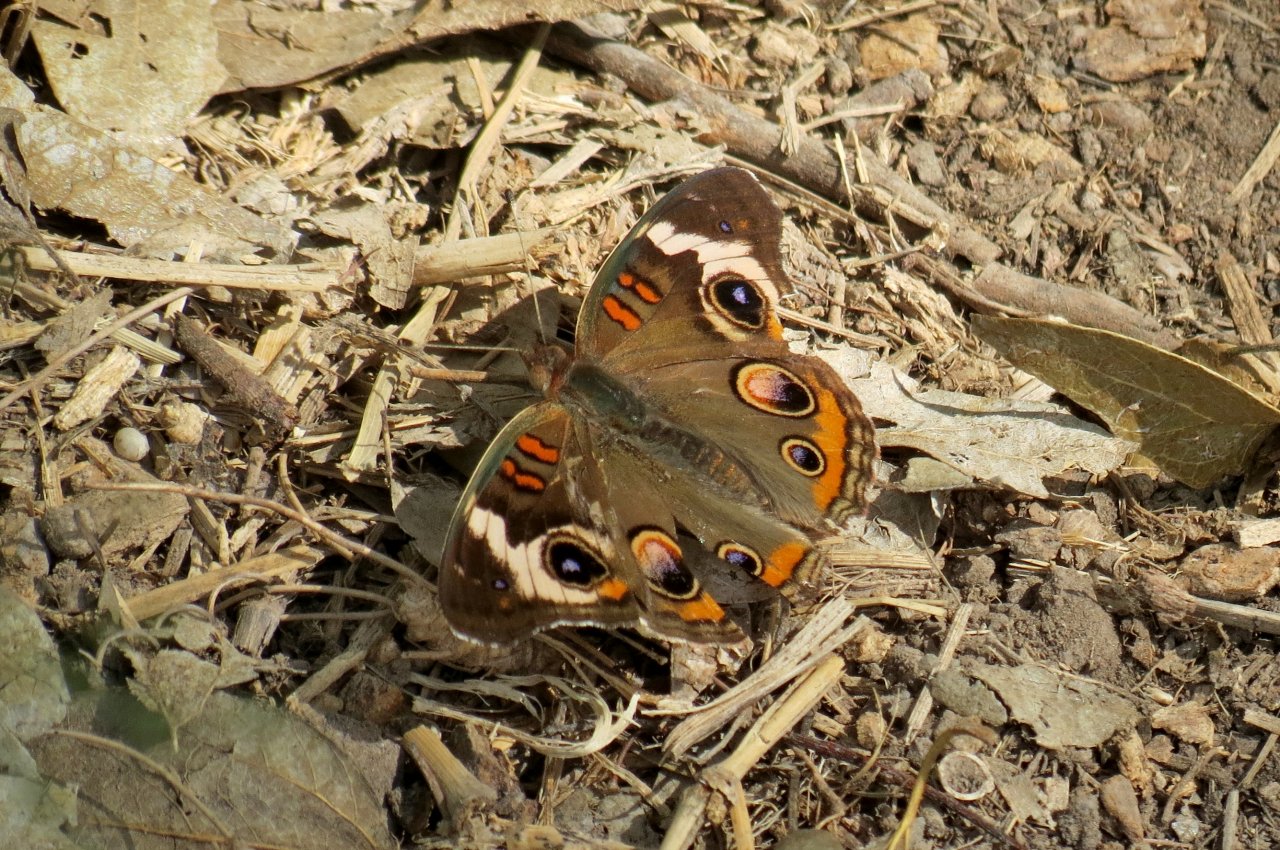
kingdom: Animalia
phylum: Arthropoda
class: Insecta
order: Lepidoptera
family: Nymphalidae
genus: Junonia
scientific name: Junonia coenia
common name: Common Buckeye
